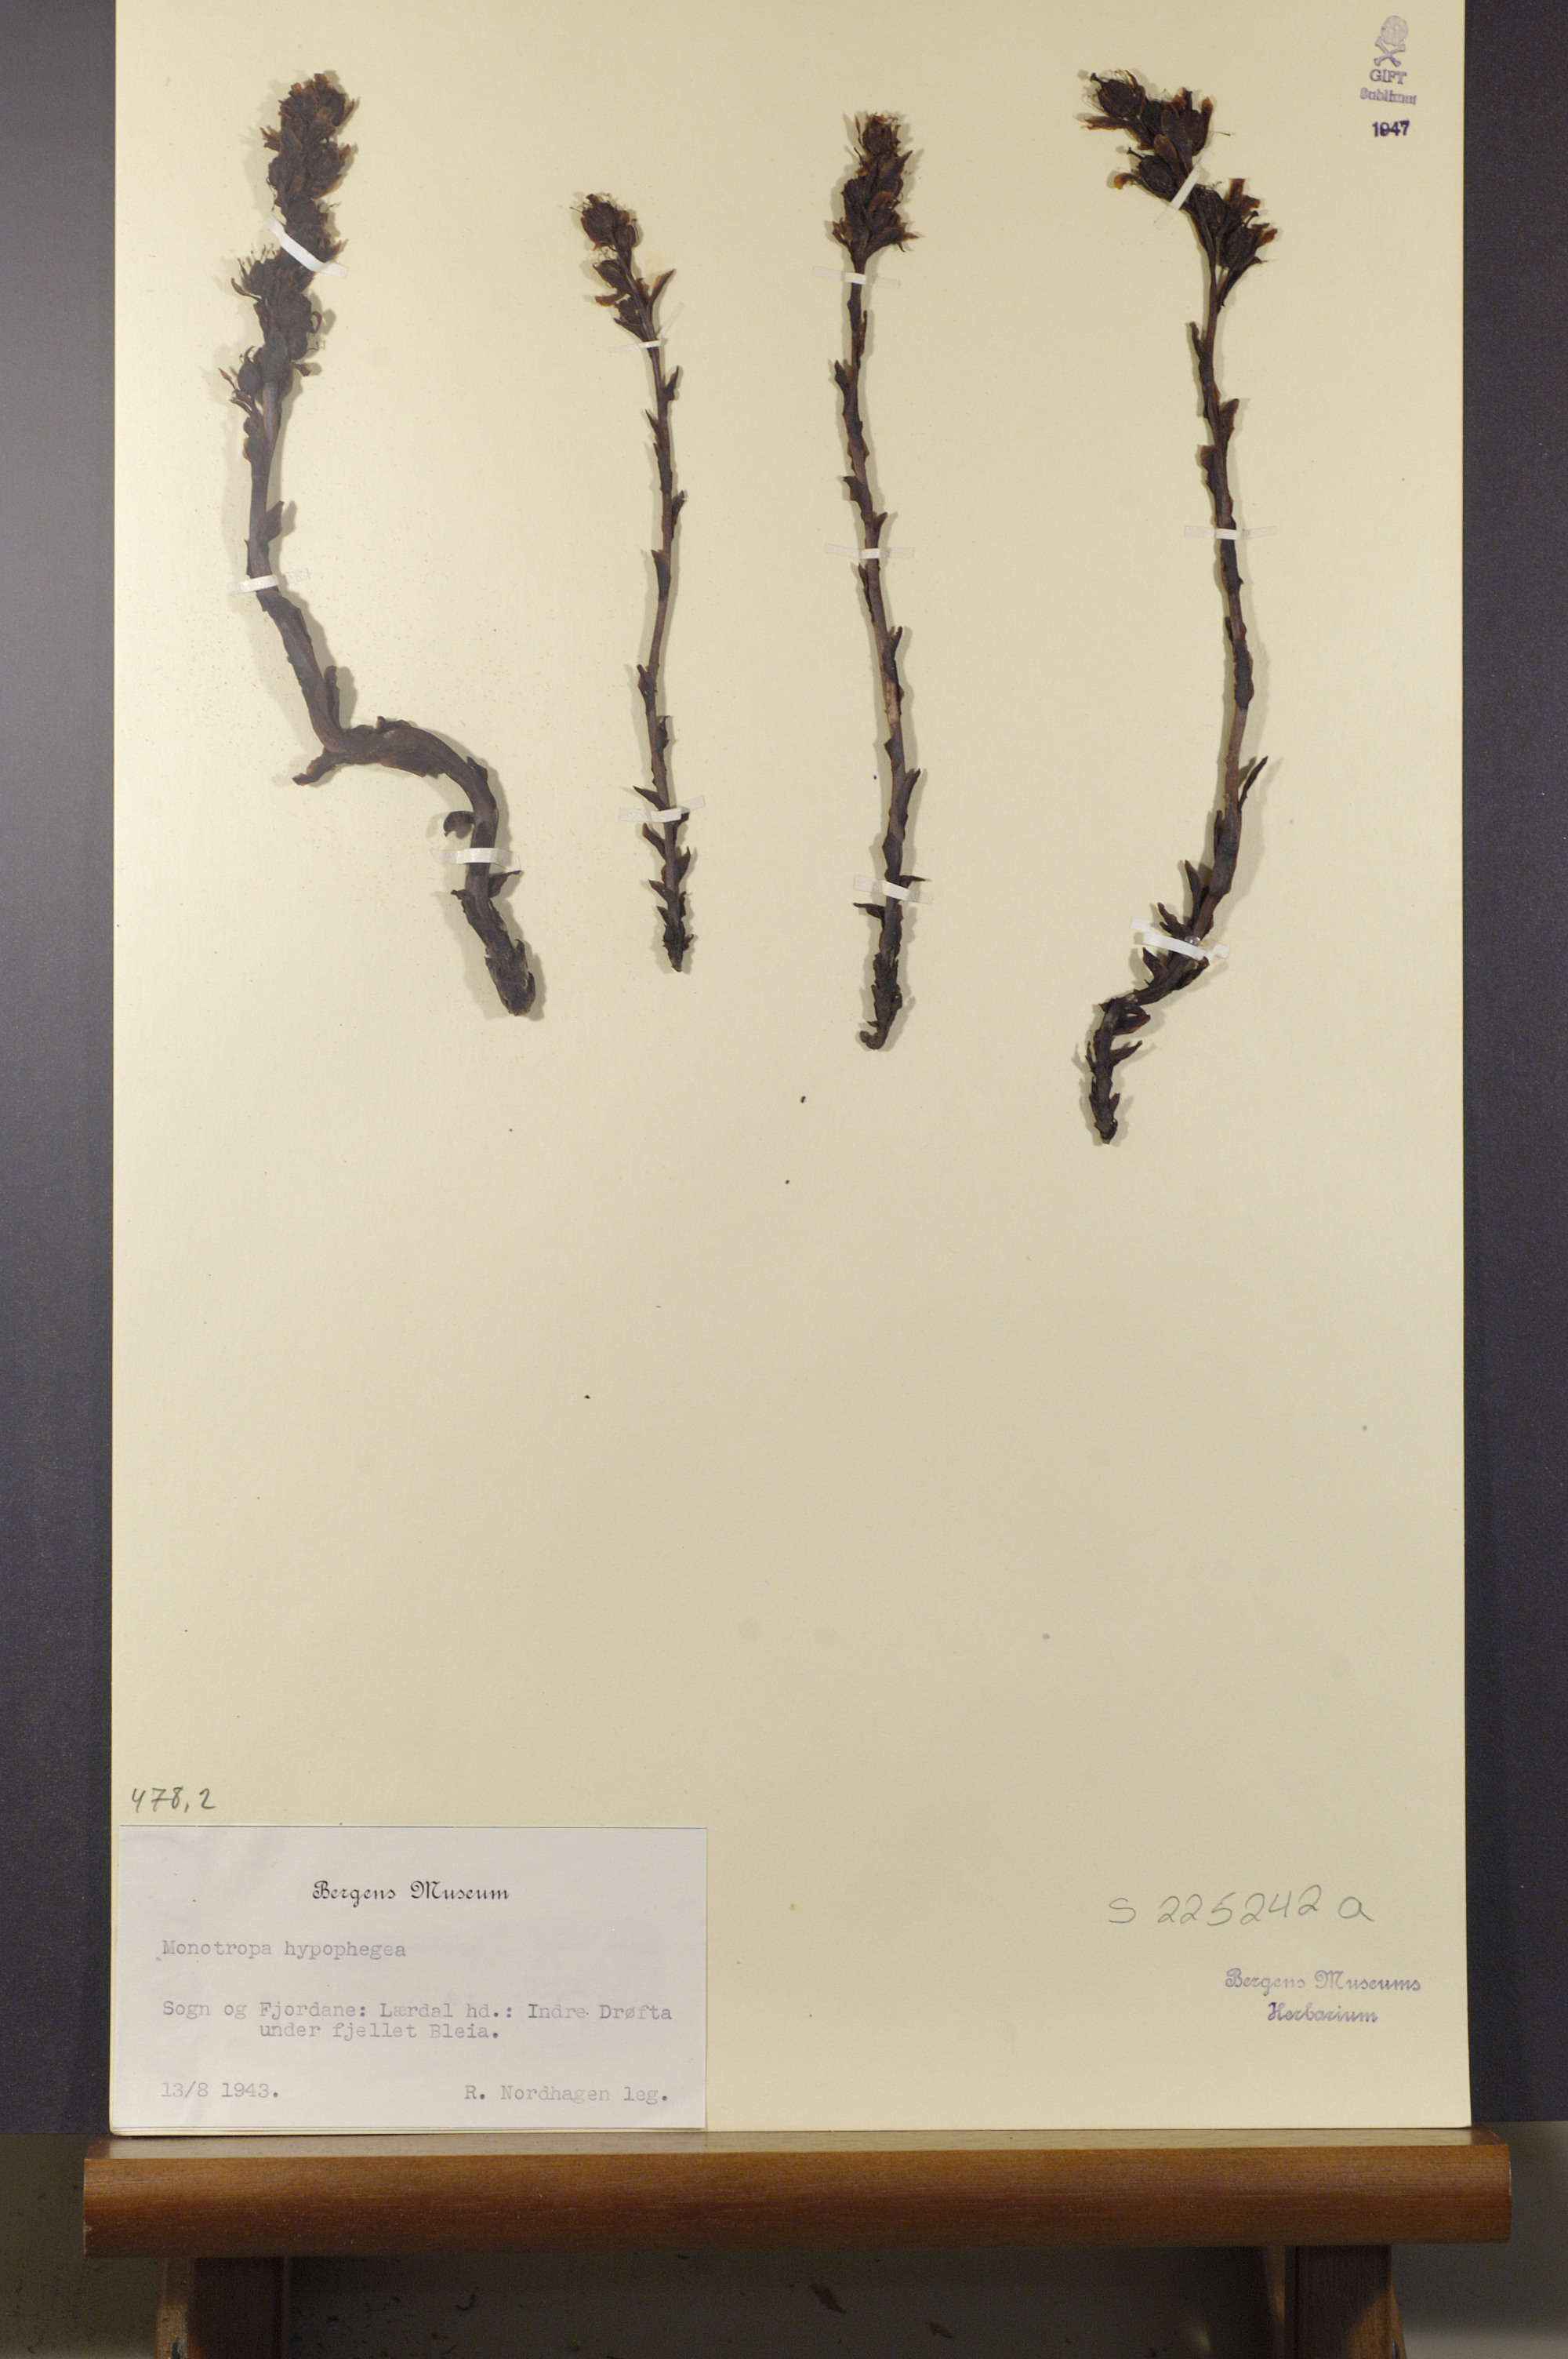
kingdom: Plantae
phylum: Tracheophyta
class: Magnoliopsida
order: Ericales
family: Ericaceae
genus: Hypopitys
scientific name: Hypopitys hypophegea
